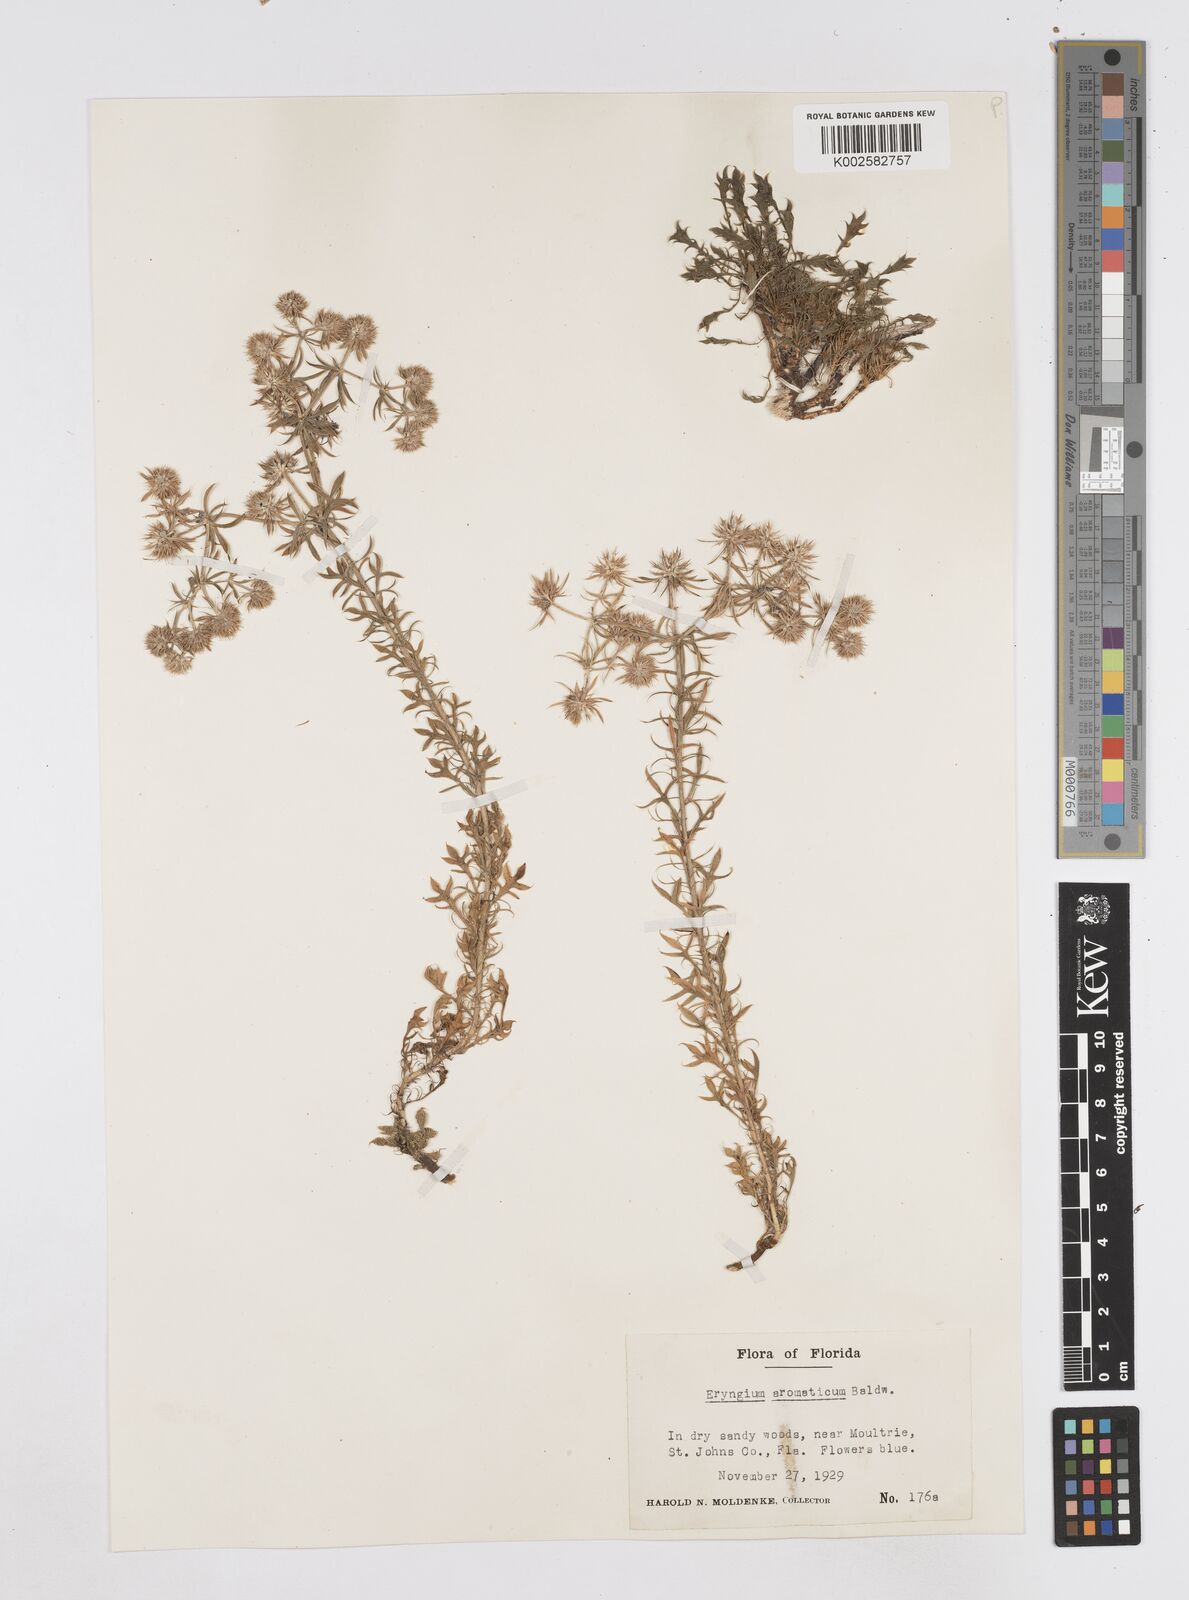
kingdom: Plantae
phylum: Tracheophyta
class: Magnoliopsida
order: Apiales
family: Apiaceae
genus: Eryngium
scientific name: Eryngium aromaticum
